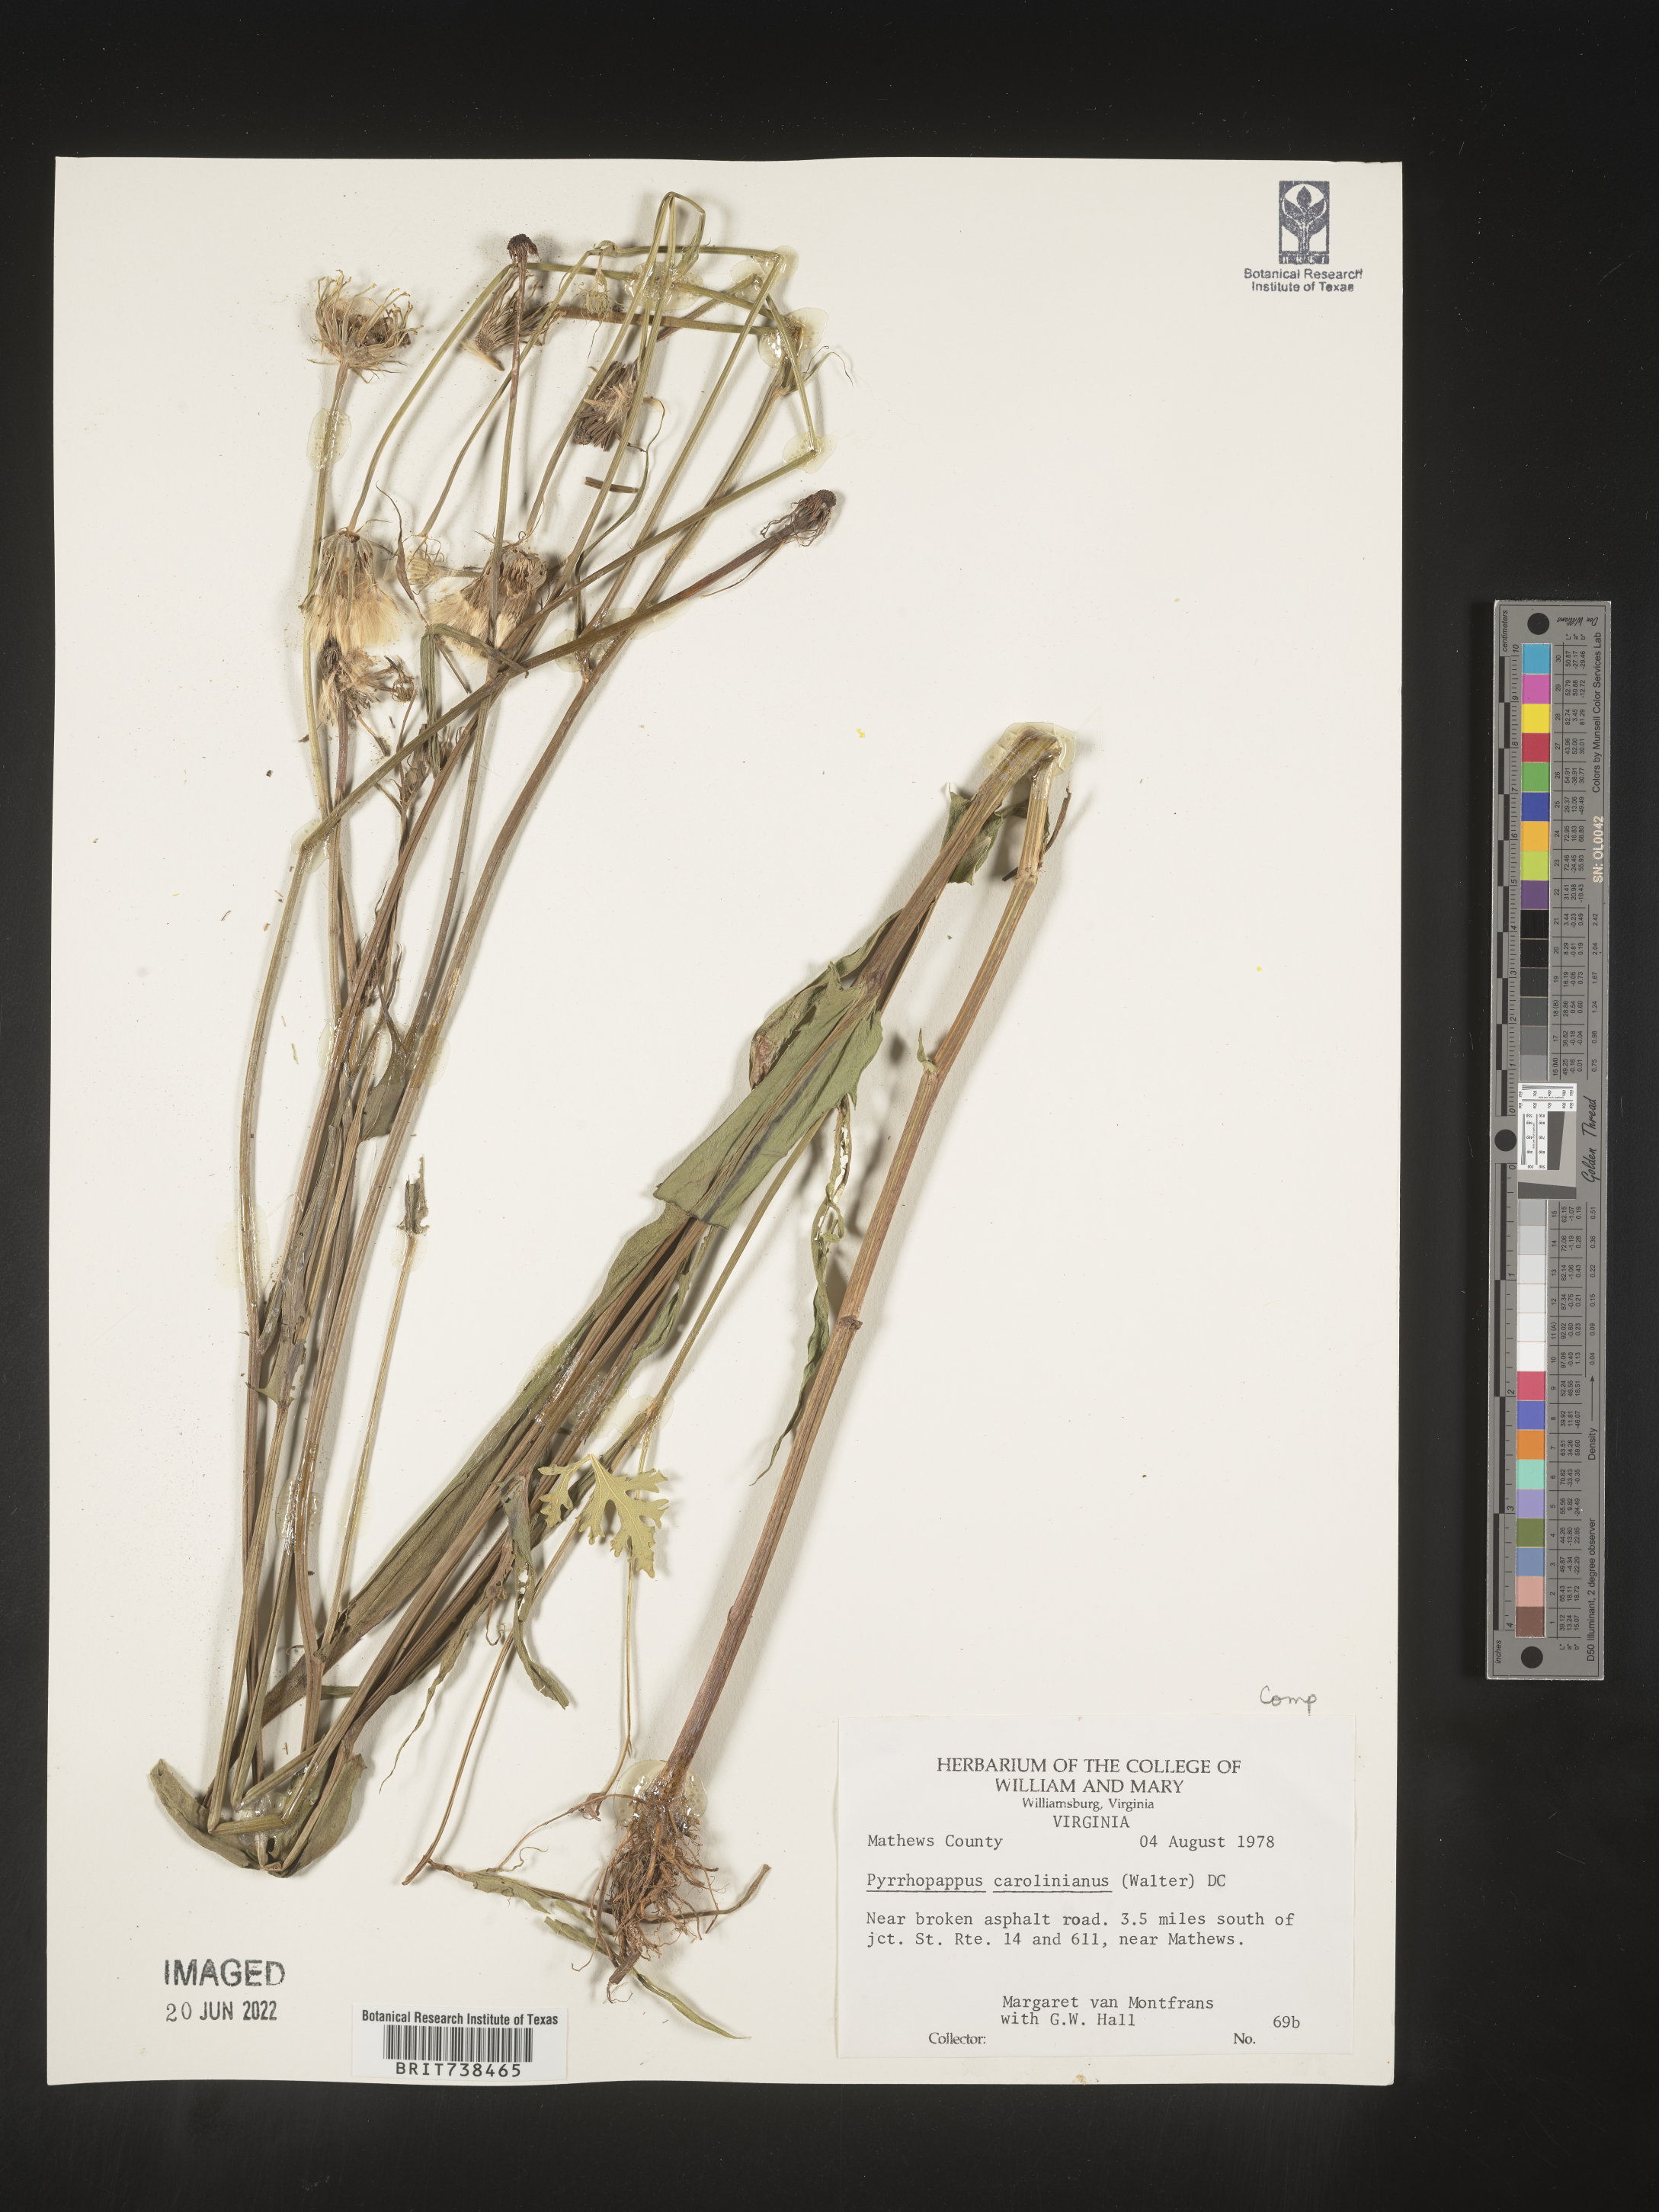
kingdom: Plantae
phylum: Tracheophyta
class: Magnoliopsida
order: Asterales
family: Asteraceae
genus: Pyrrhopappus
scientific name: Pyrrhopappus carolinianus
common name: Carolina desert-chicory
